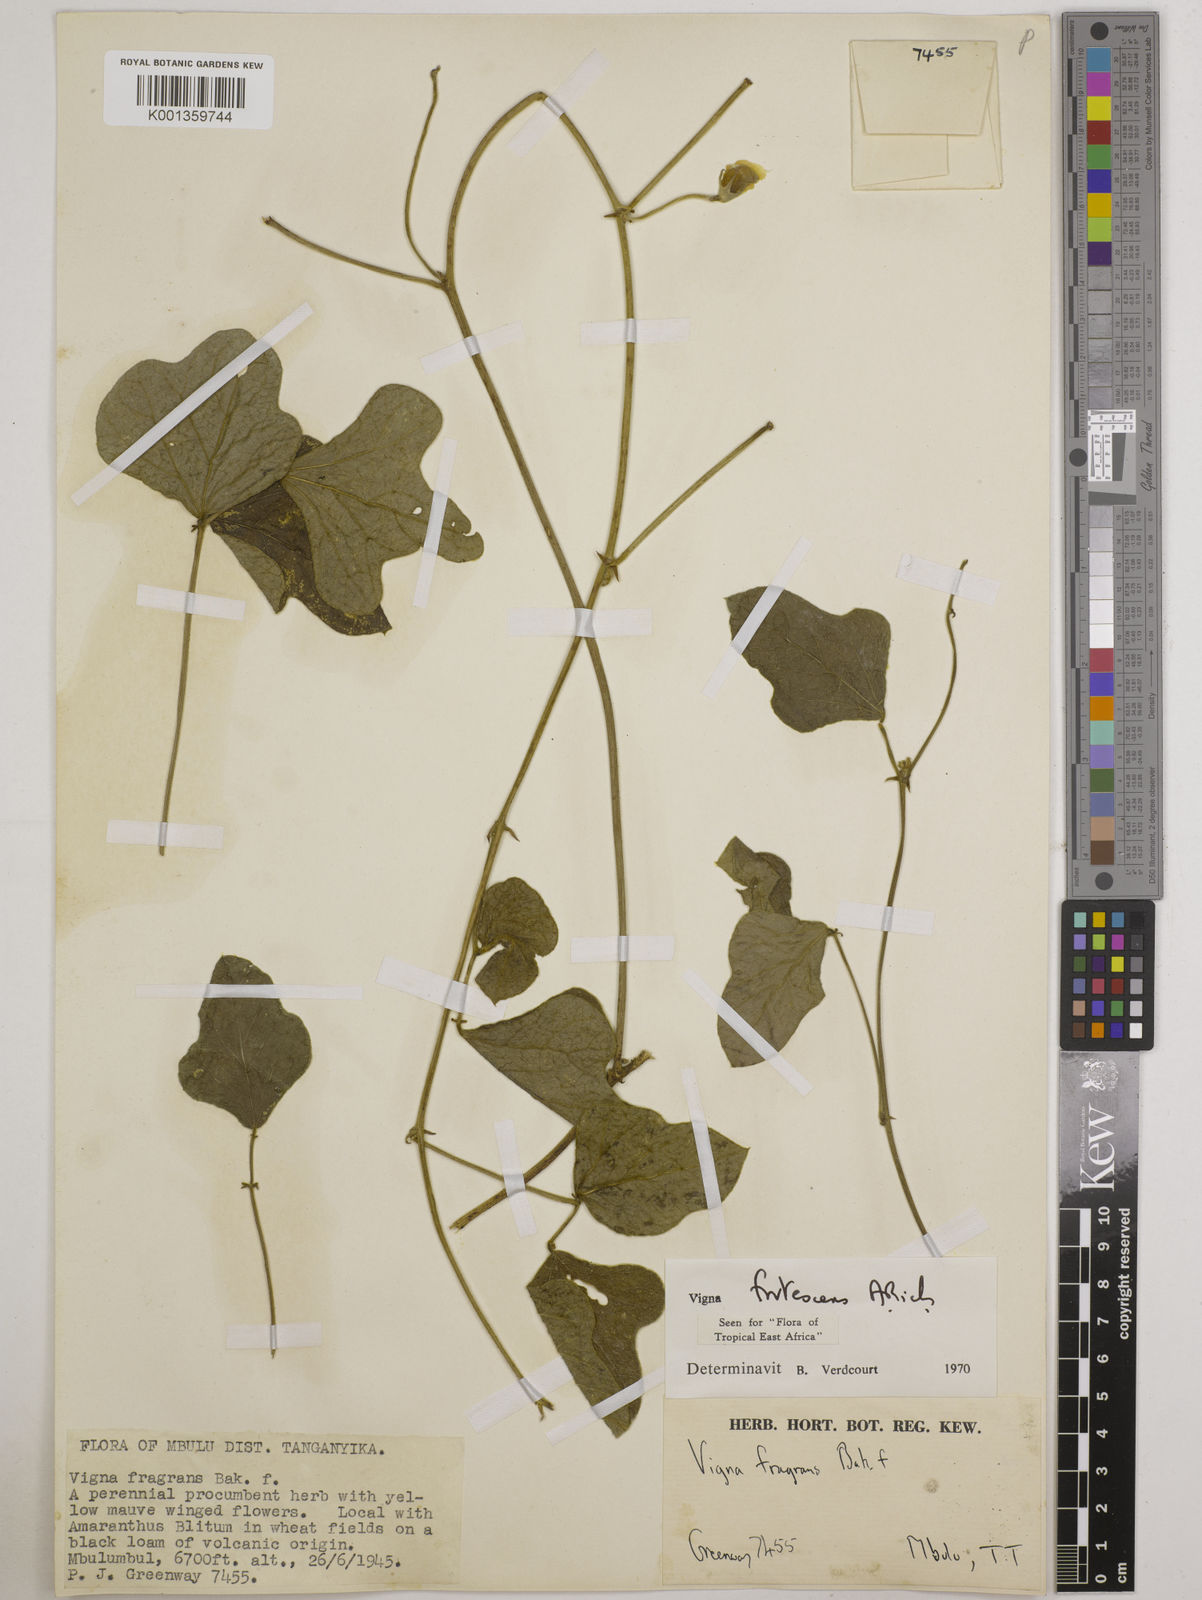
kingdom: Plantae
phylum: Tracheophyta
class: Magnoliopsida
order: Fabales
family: Fabaceae
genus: Vigna
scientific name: Vigna frutescens
